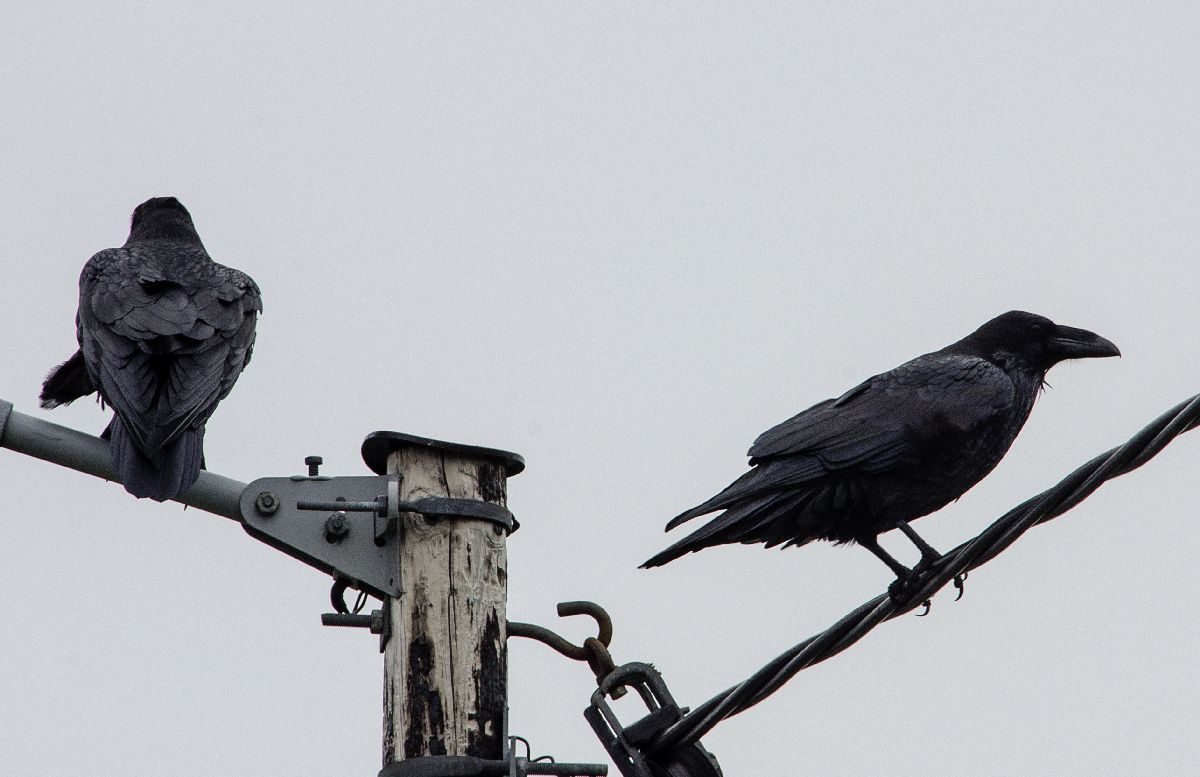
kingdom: Animalia
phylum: Chordata
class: Aves
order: Passeriformes
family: Corvidae
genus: Corvus
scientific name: Corvus corax
